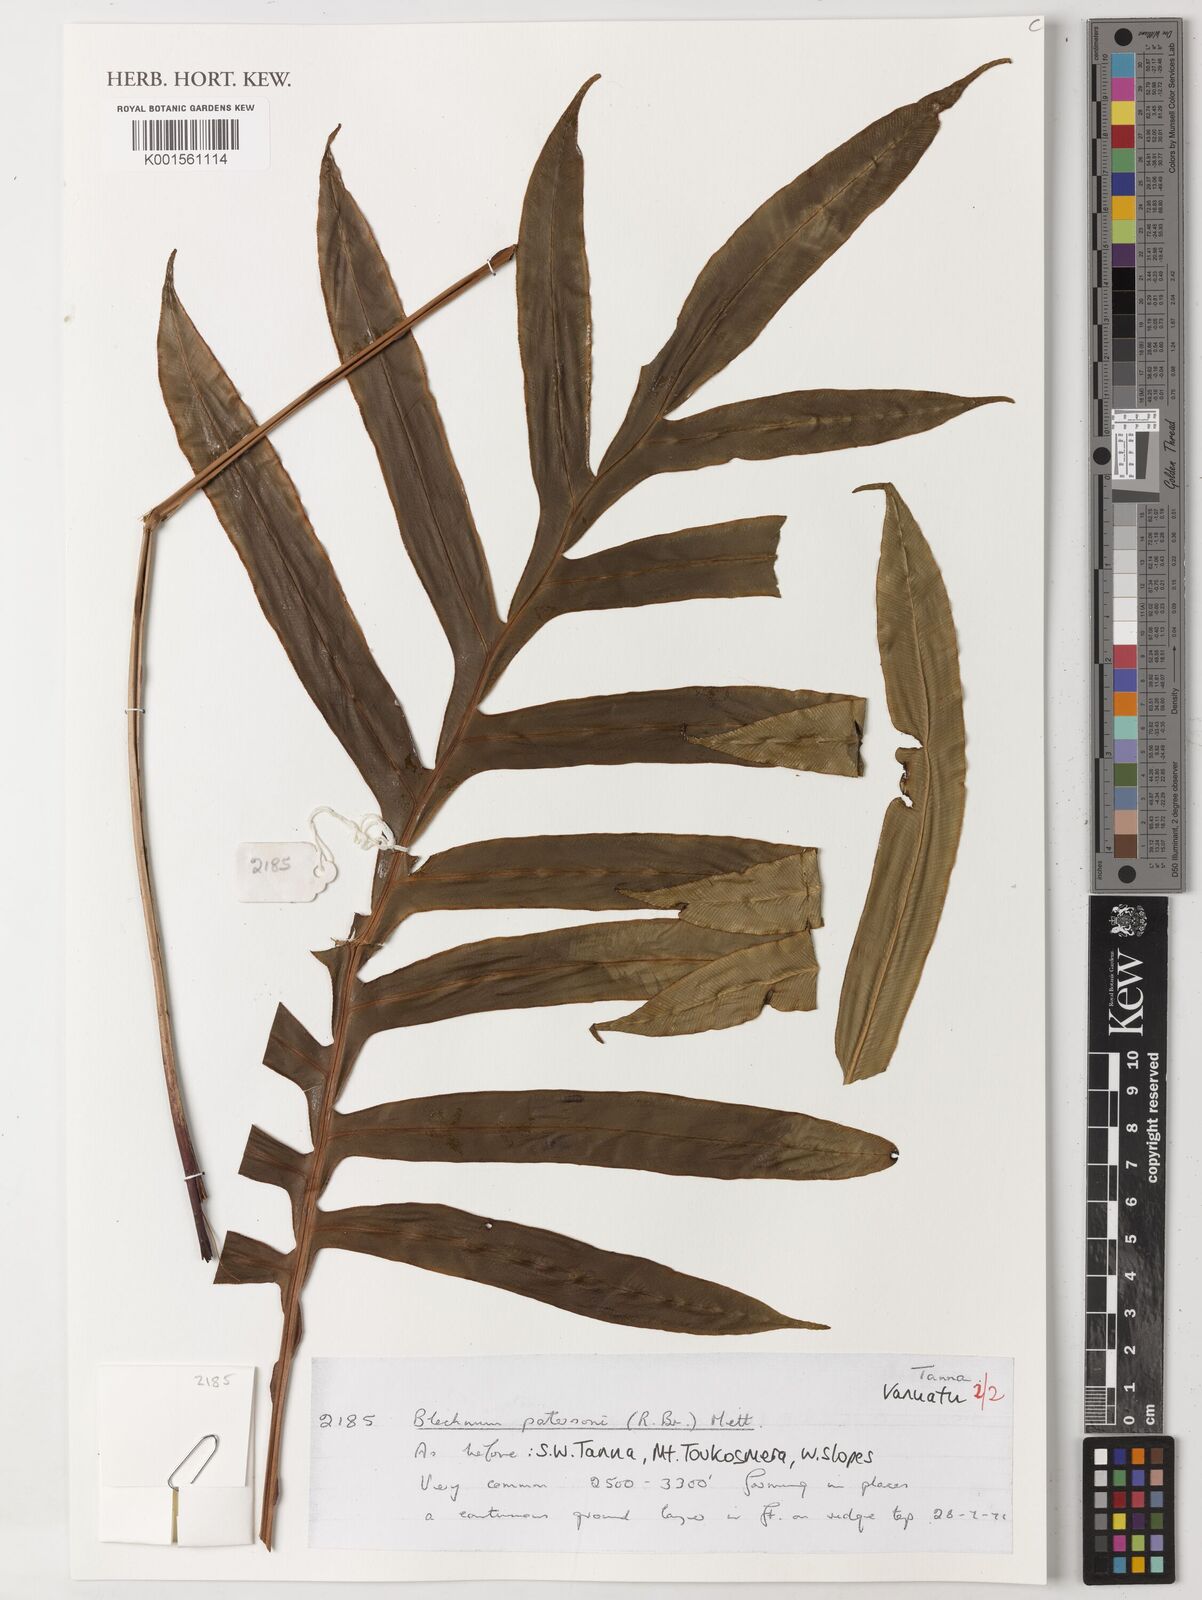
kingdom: Plantae
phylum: Tracheophyta
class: Polypodiopsida
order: Polypodiales
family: Blechnaceae
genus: Austroblechnum
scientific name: Austroblechnum patersonii
